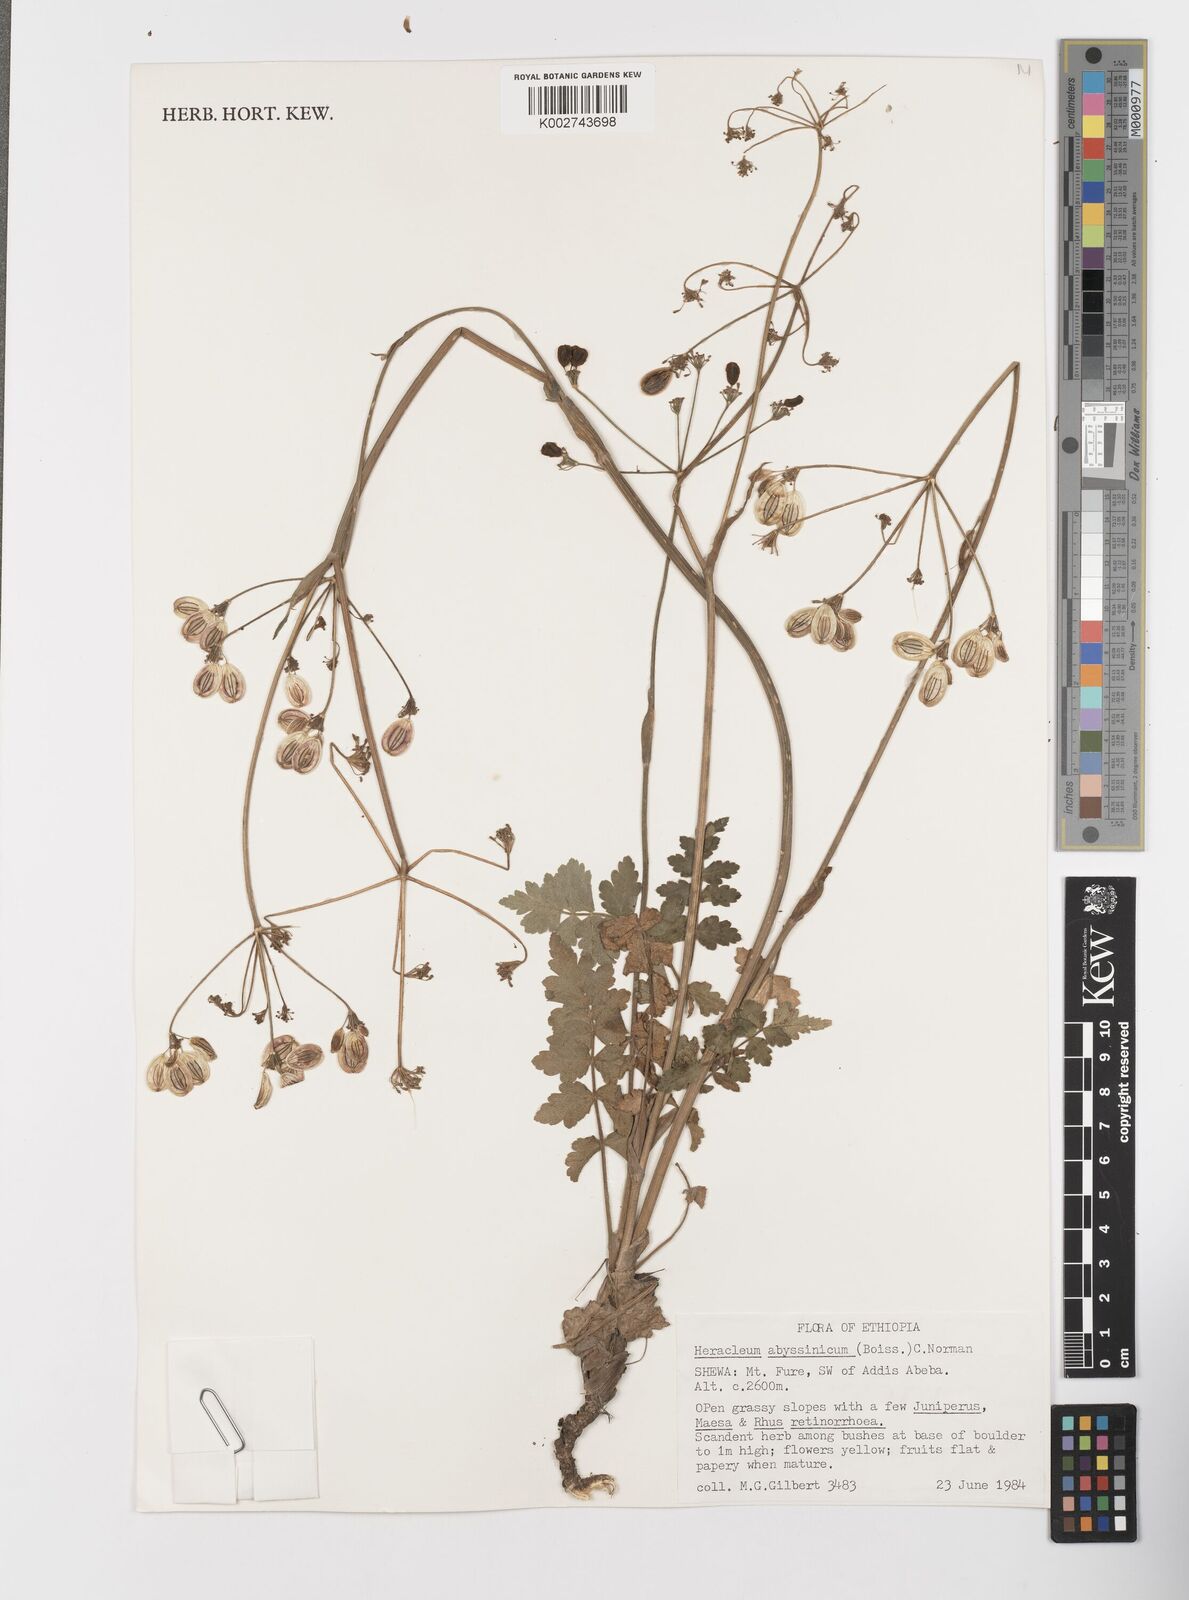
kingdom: Plantae
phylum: Tracheophyta
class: Magnoliopsida
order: Apiales
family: Apiaceae
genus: Heracleum
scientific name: Heracleum abyssinicum
